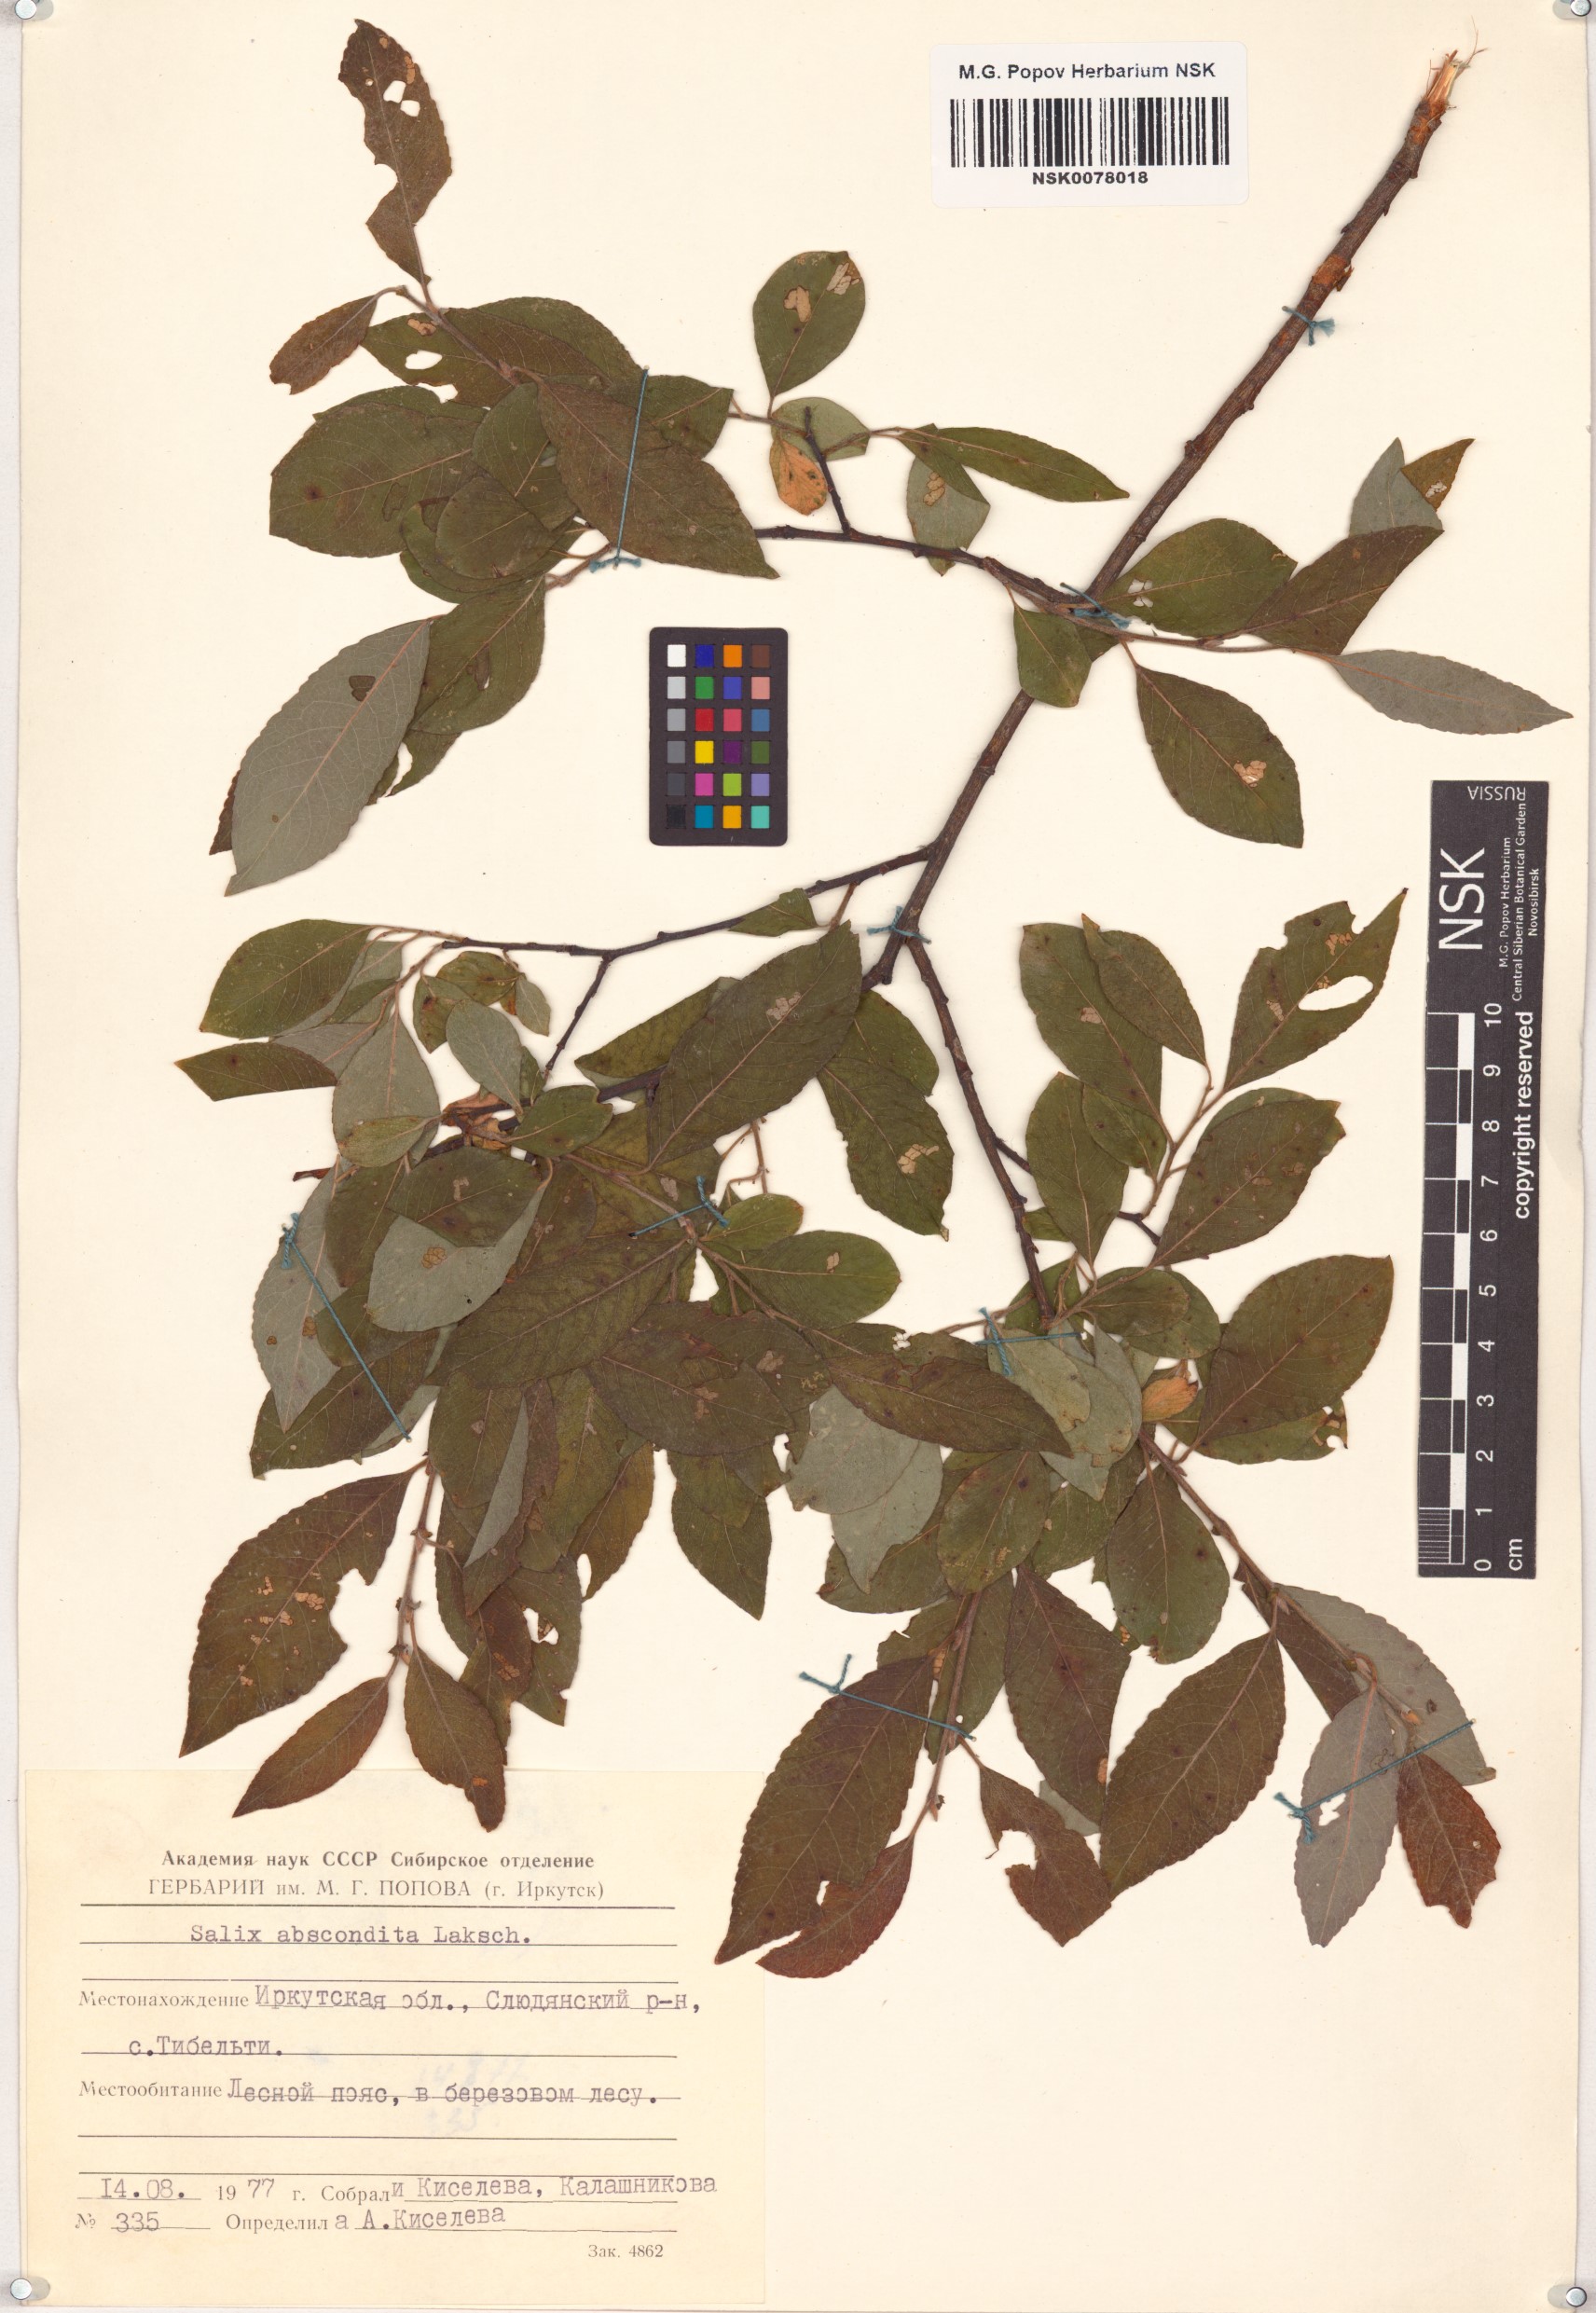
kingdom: Plantae
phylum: Tracheophyta
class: Magnoliopsida
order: Malpighiales
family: Salicaceae
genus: Salix
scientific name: Salix abscondita
